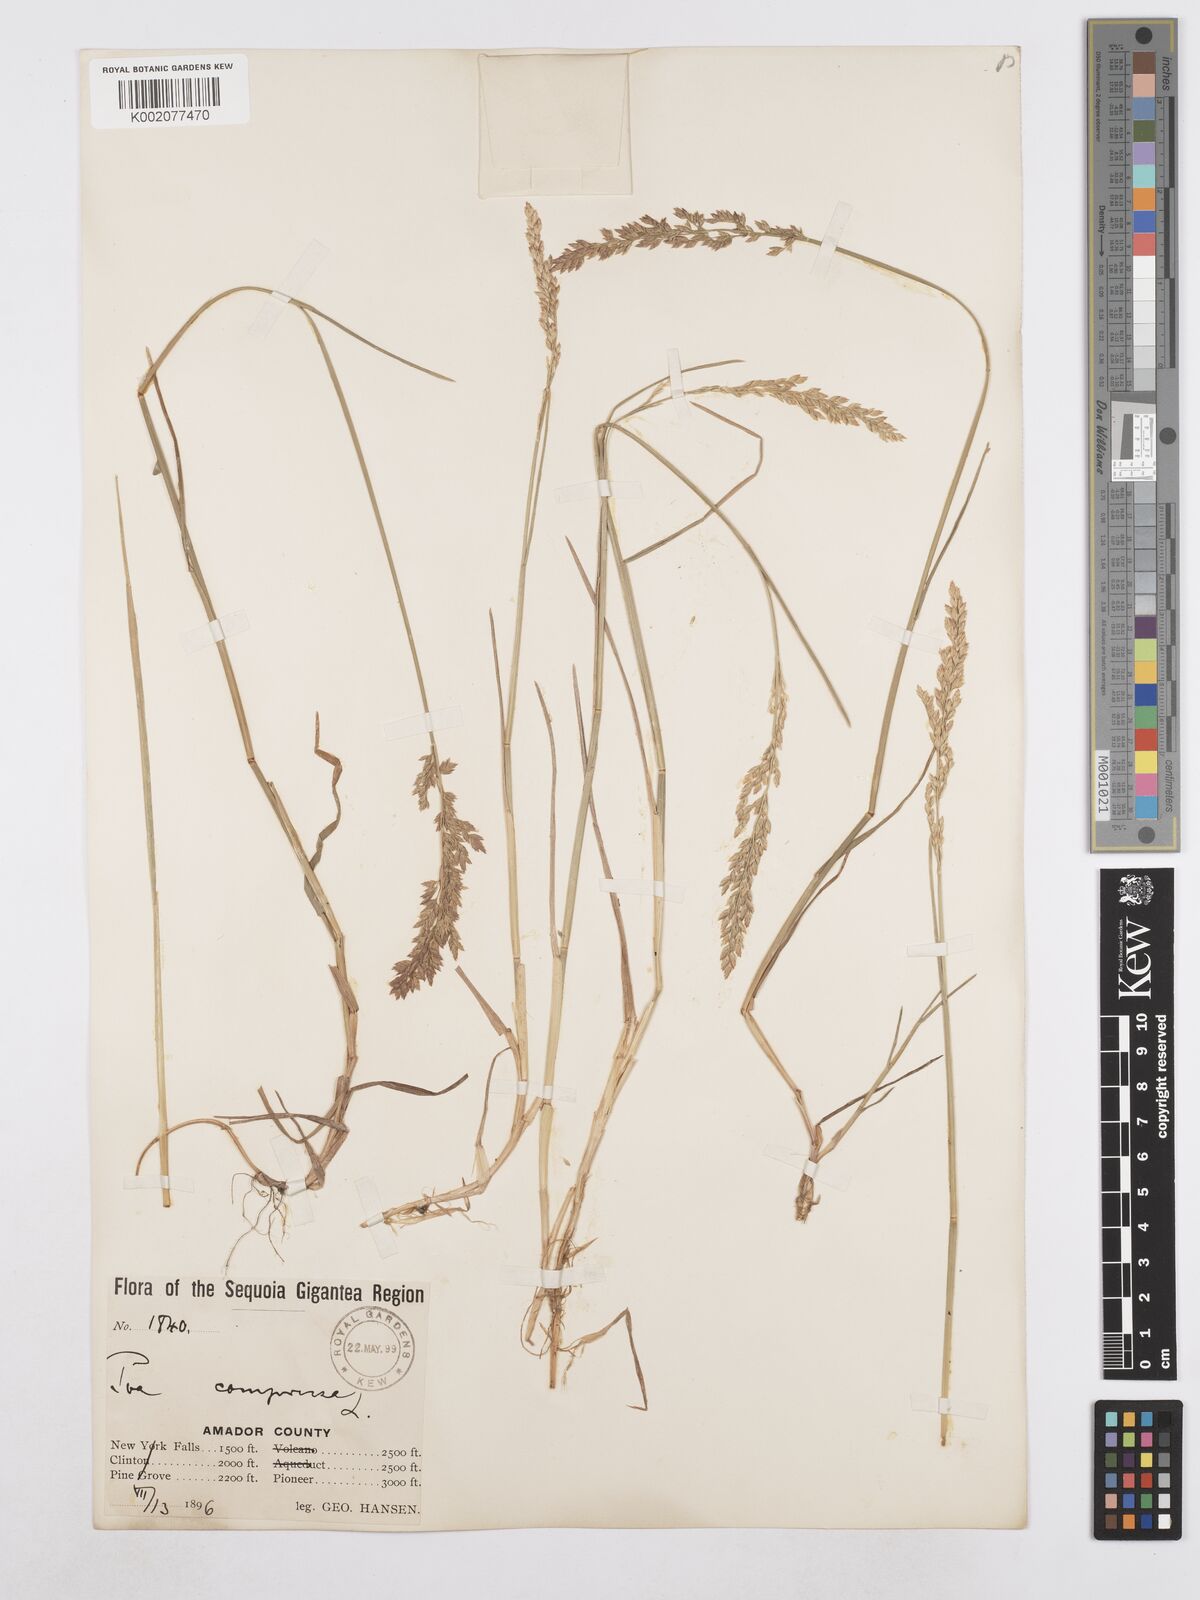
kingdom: Plantae
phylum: Tracheophyta
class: Liliopsida
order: Poales
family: Poaceae
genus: Poa
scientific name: Poa compressa
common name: Canada bluegrass
